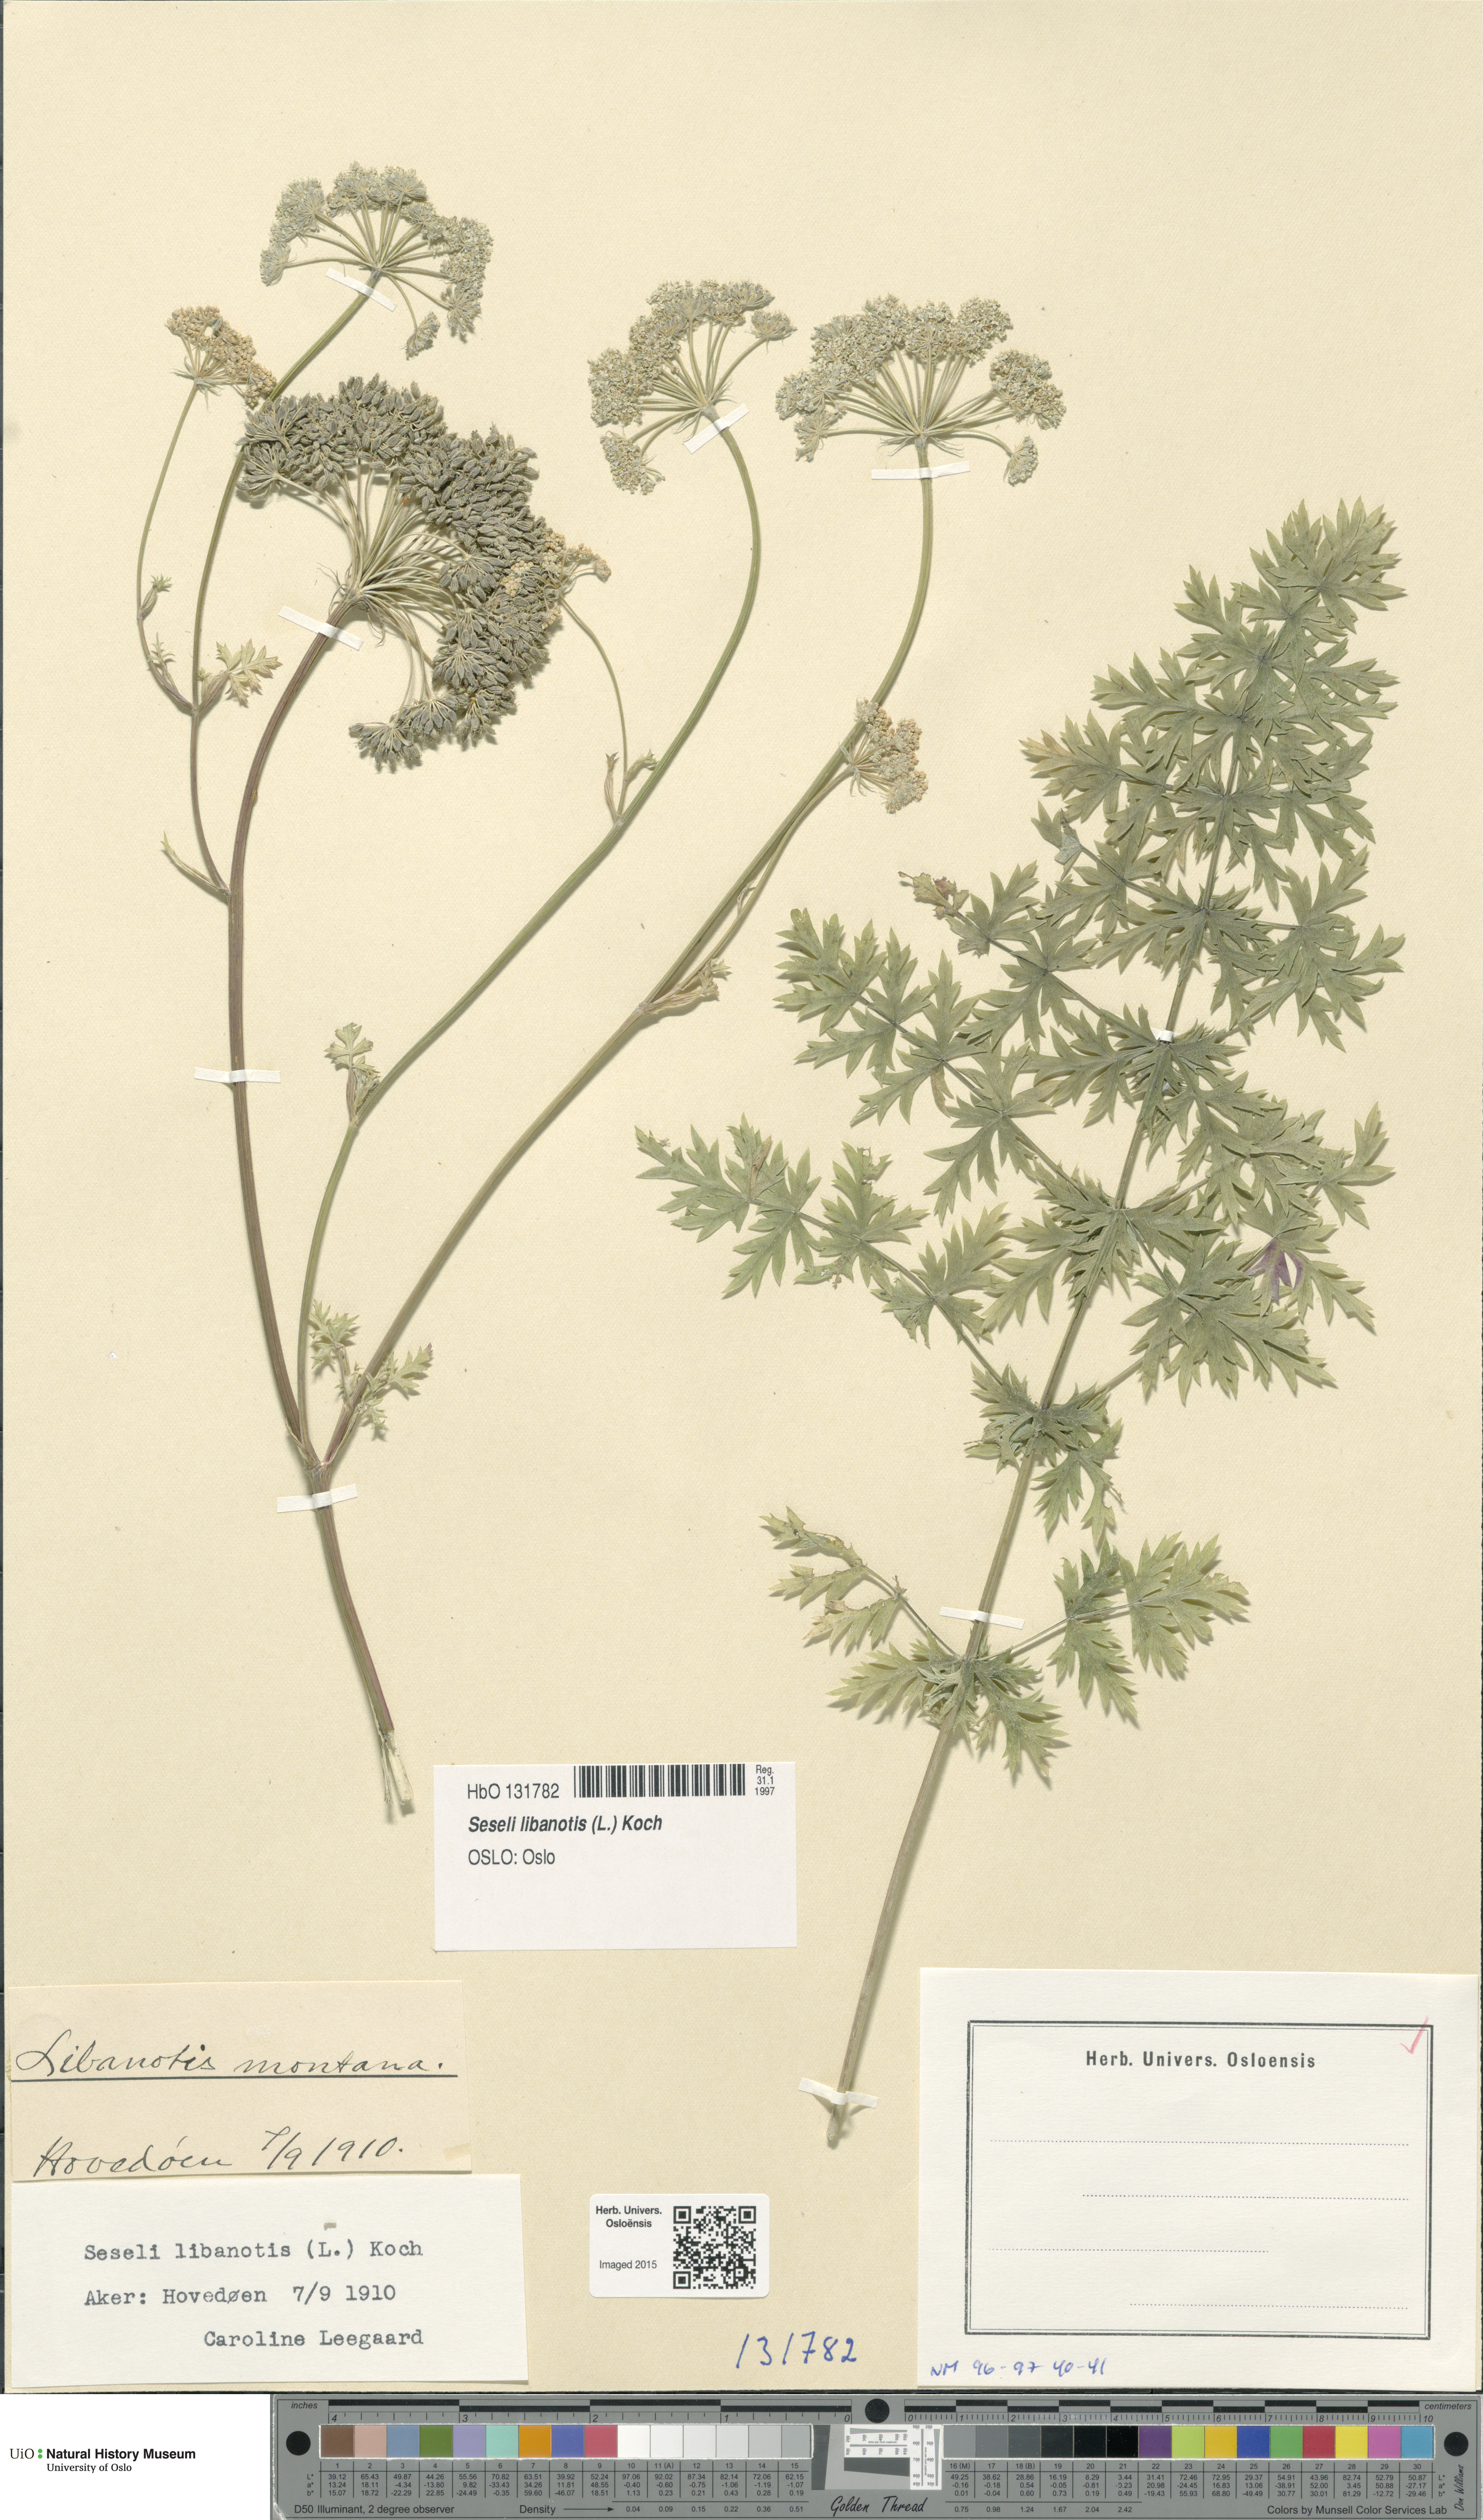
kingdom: Plantae
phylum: Tracheophyta
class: Magnoliopsida
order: Apiales
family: Apiaceae
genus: Seseli
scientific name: Seseli libanotis
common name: Mooncarrot
